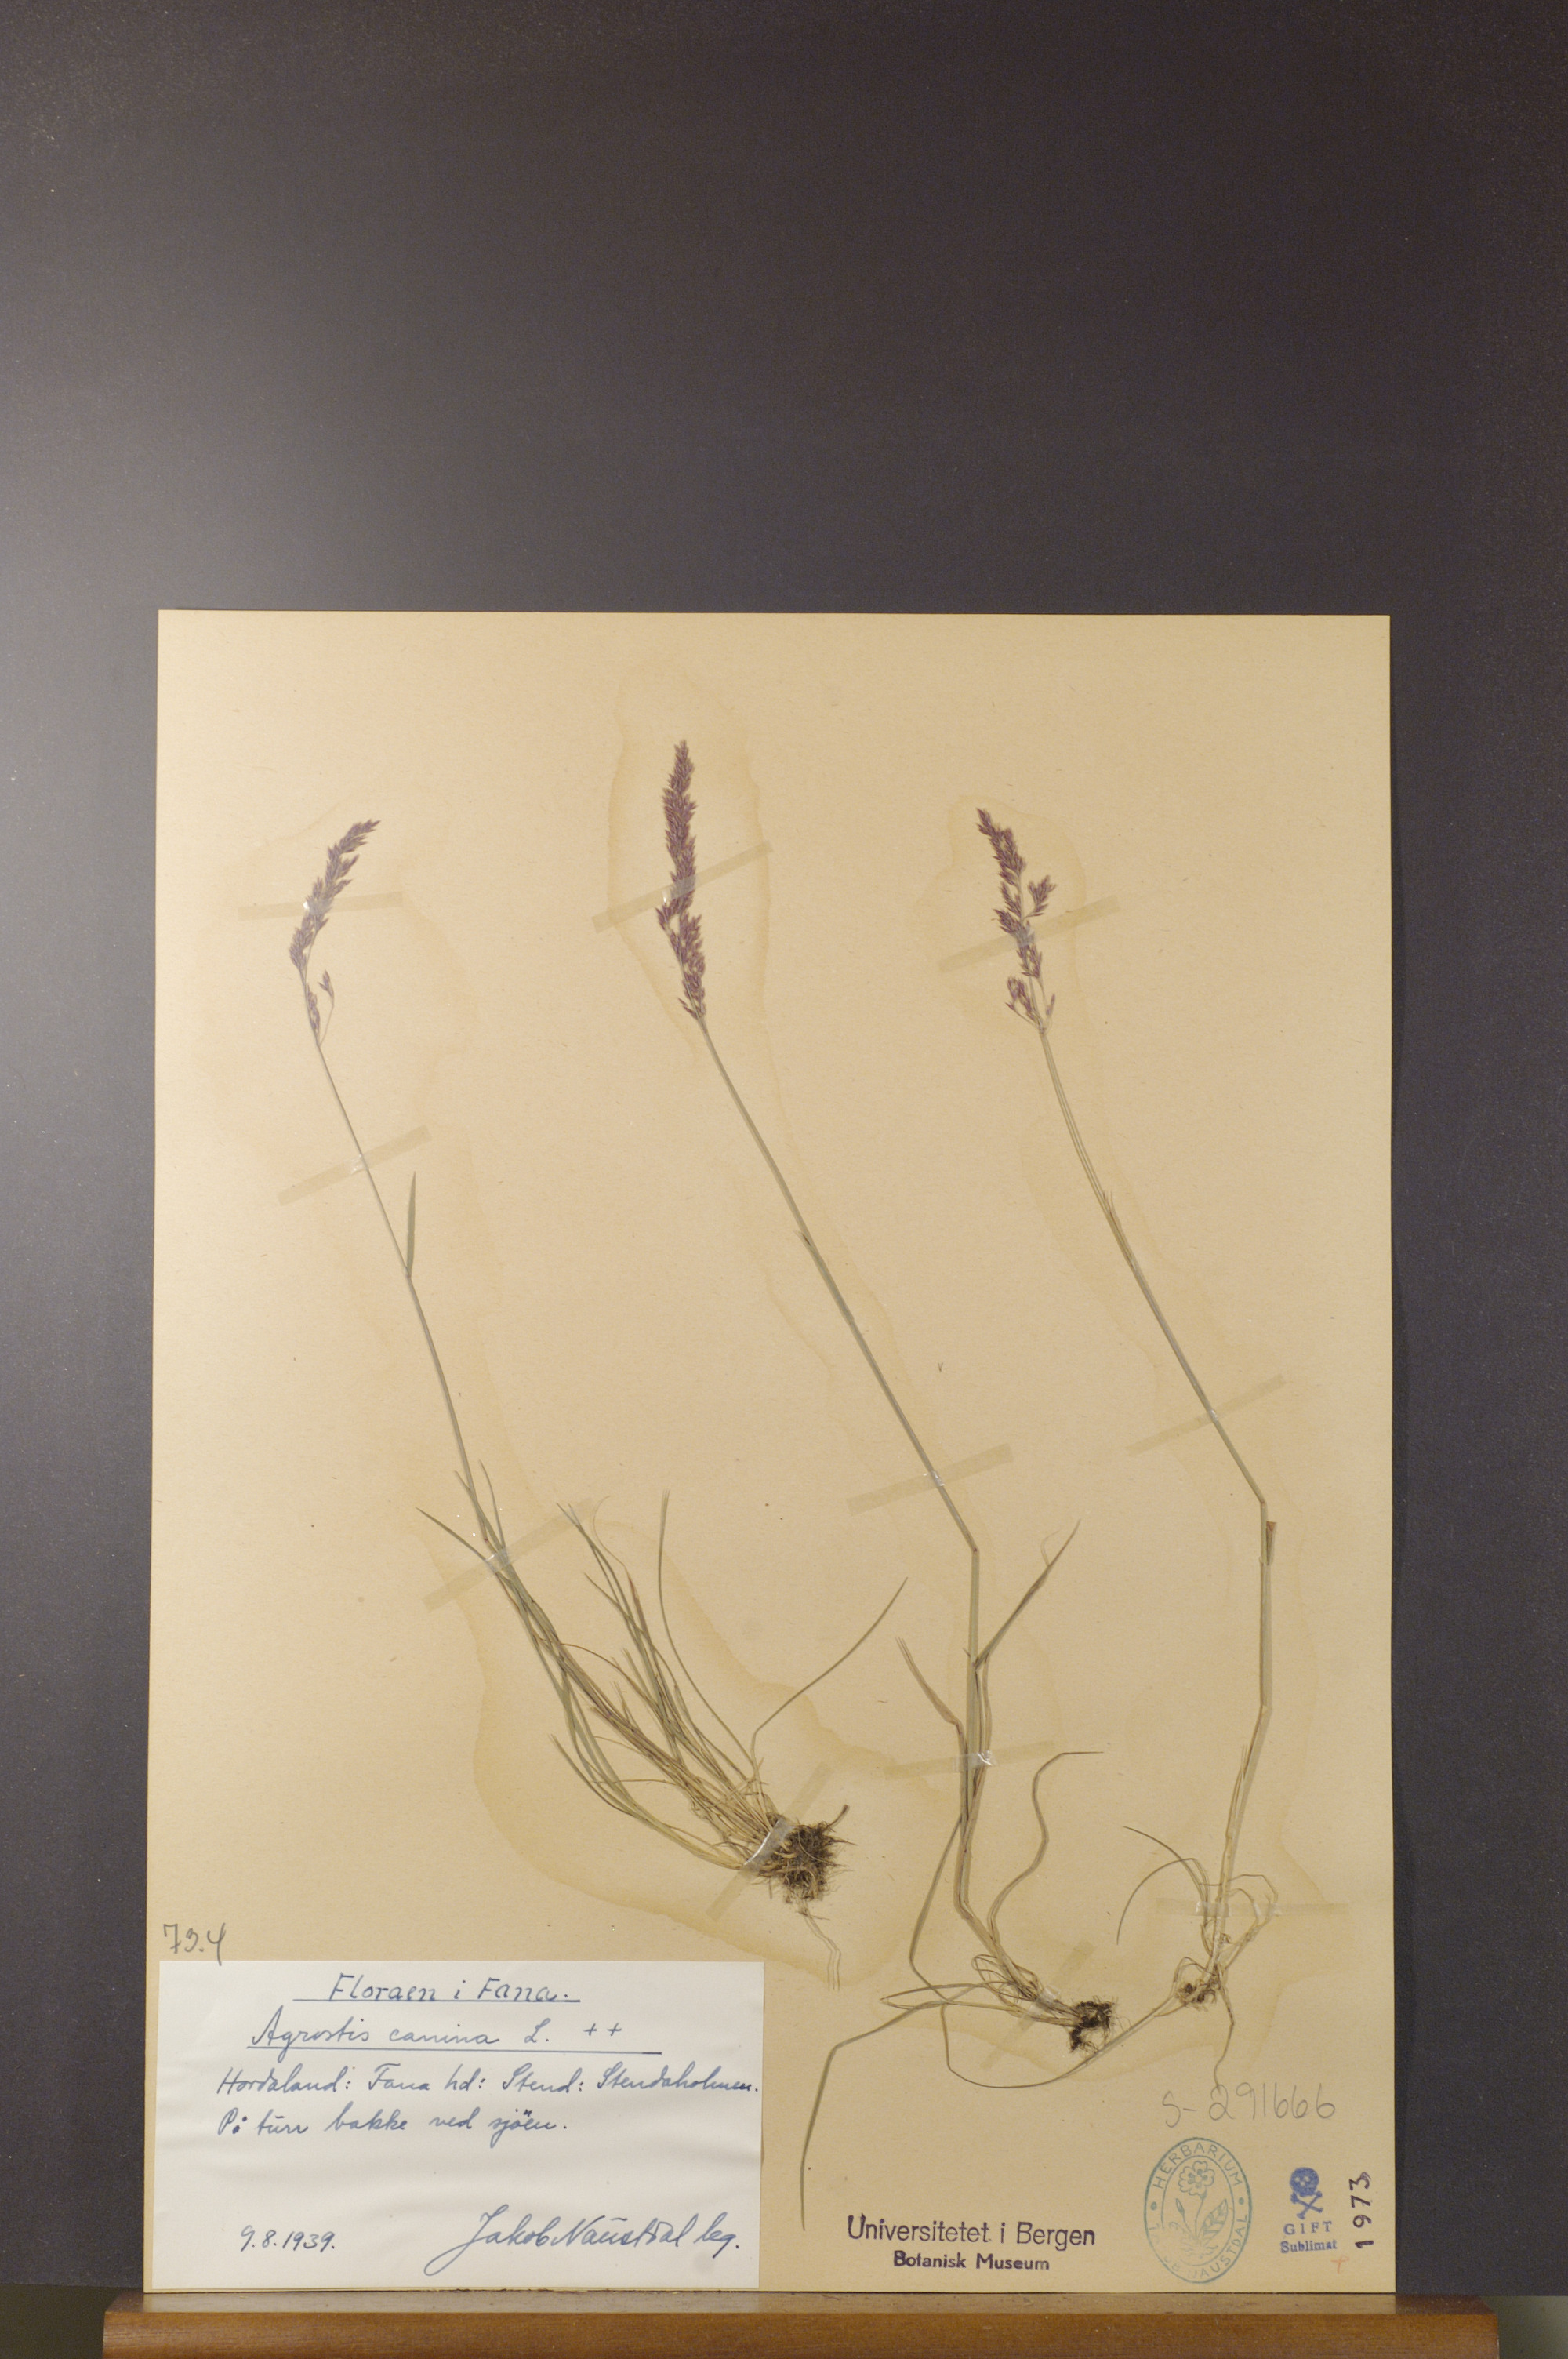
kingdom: Plantae
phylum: Tracheophyta
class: Liliopsida
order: Poales
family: Poaceae
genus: Agrostis
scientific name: Agrostis canina
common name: Velvet bent
